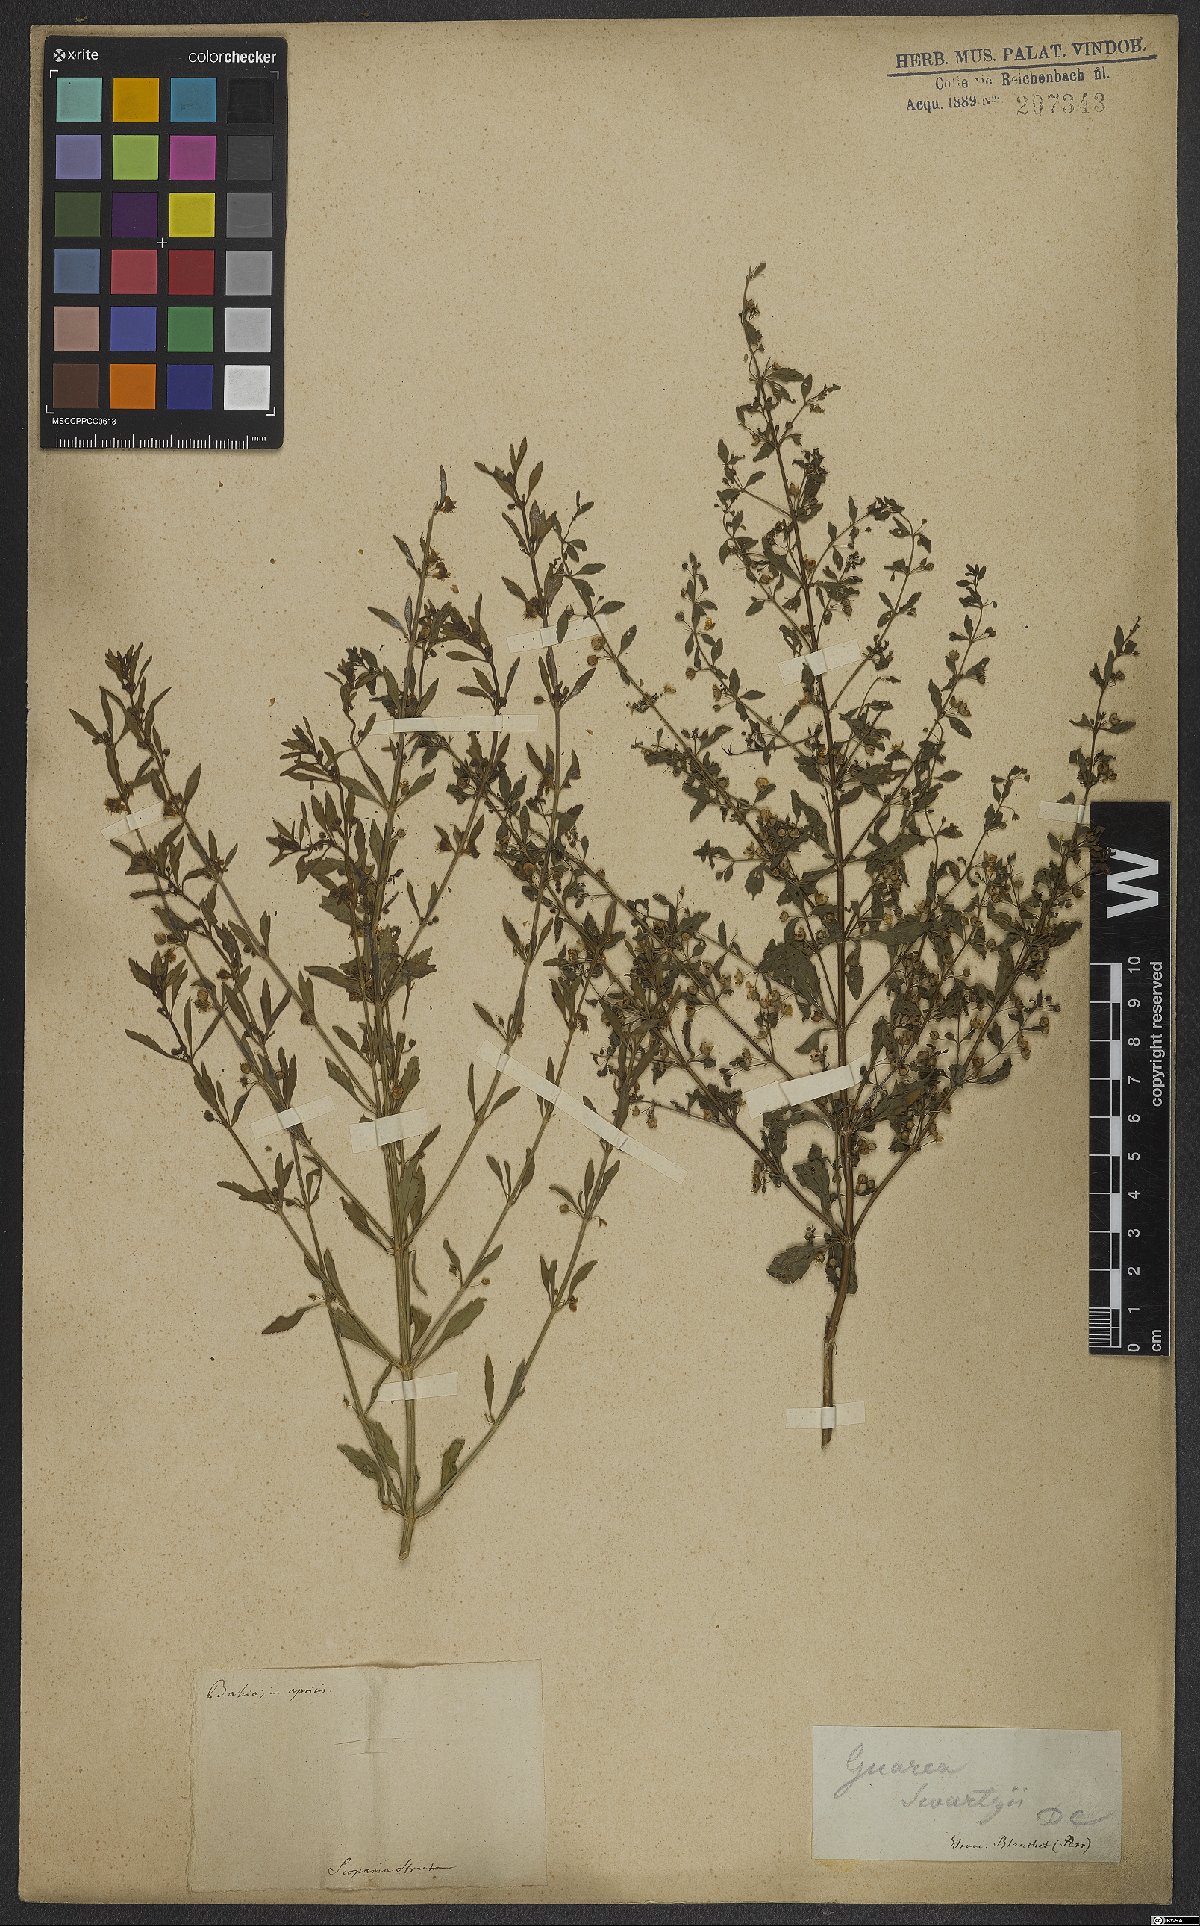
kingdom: Plantae
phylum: Tracheophyta
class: Magnoliopsida
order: Lamiales
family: Plantaginaceae
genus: Scoparia
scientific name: Scoparia dulcis
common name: Scoparia-weed
